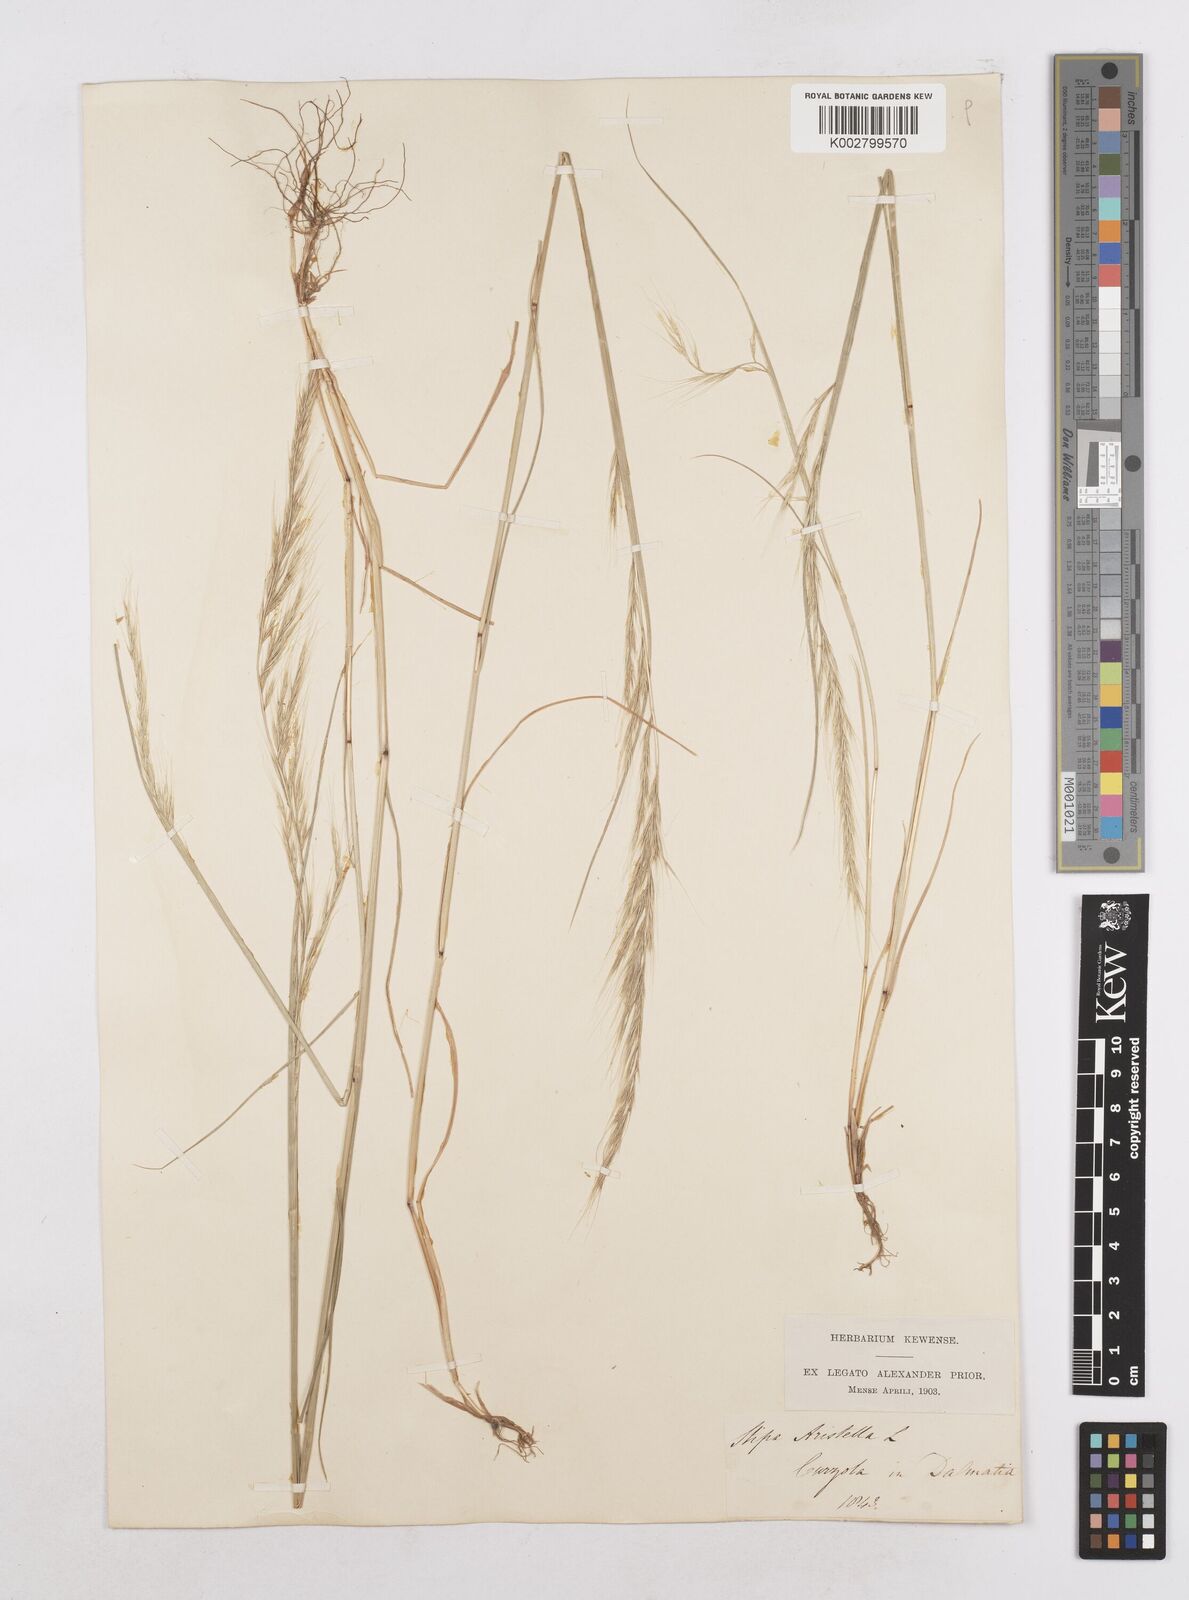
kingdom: Plantae
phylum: Tracheophyta
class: Liliopsida
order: Poales
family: Poaceae
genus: Festuca
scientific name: Festuca myuros
